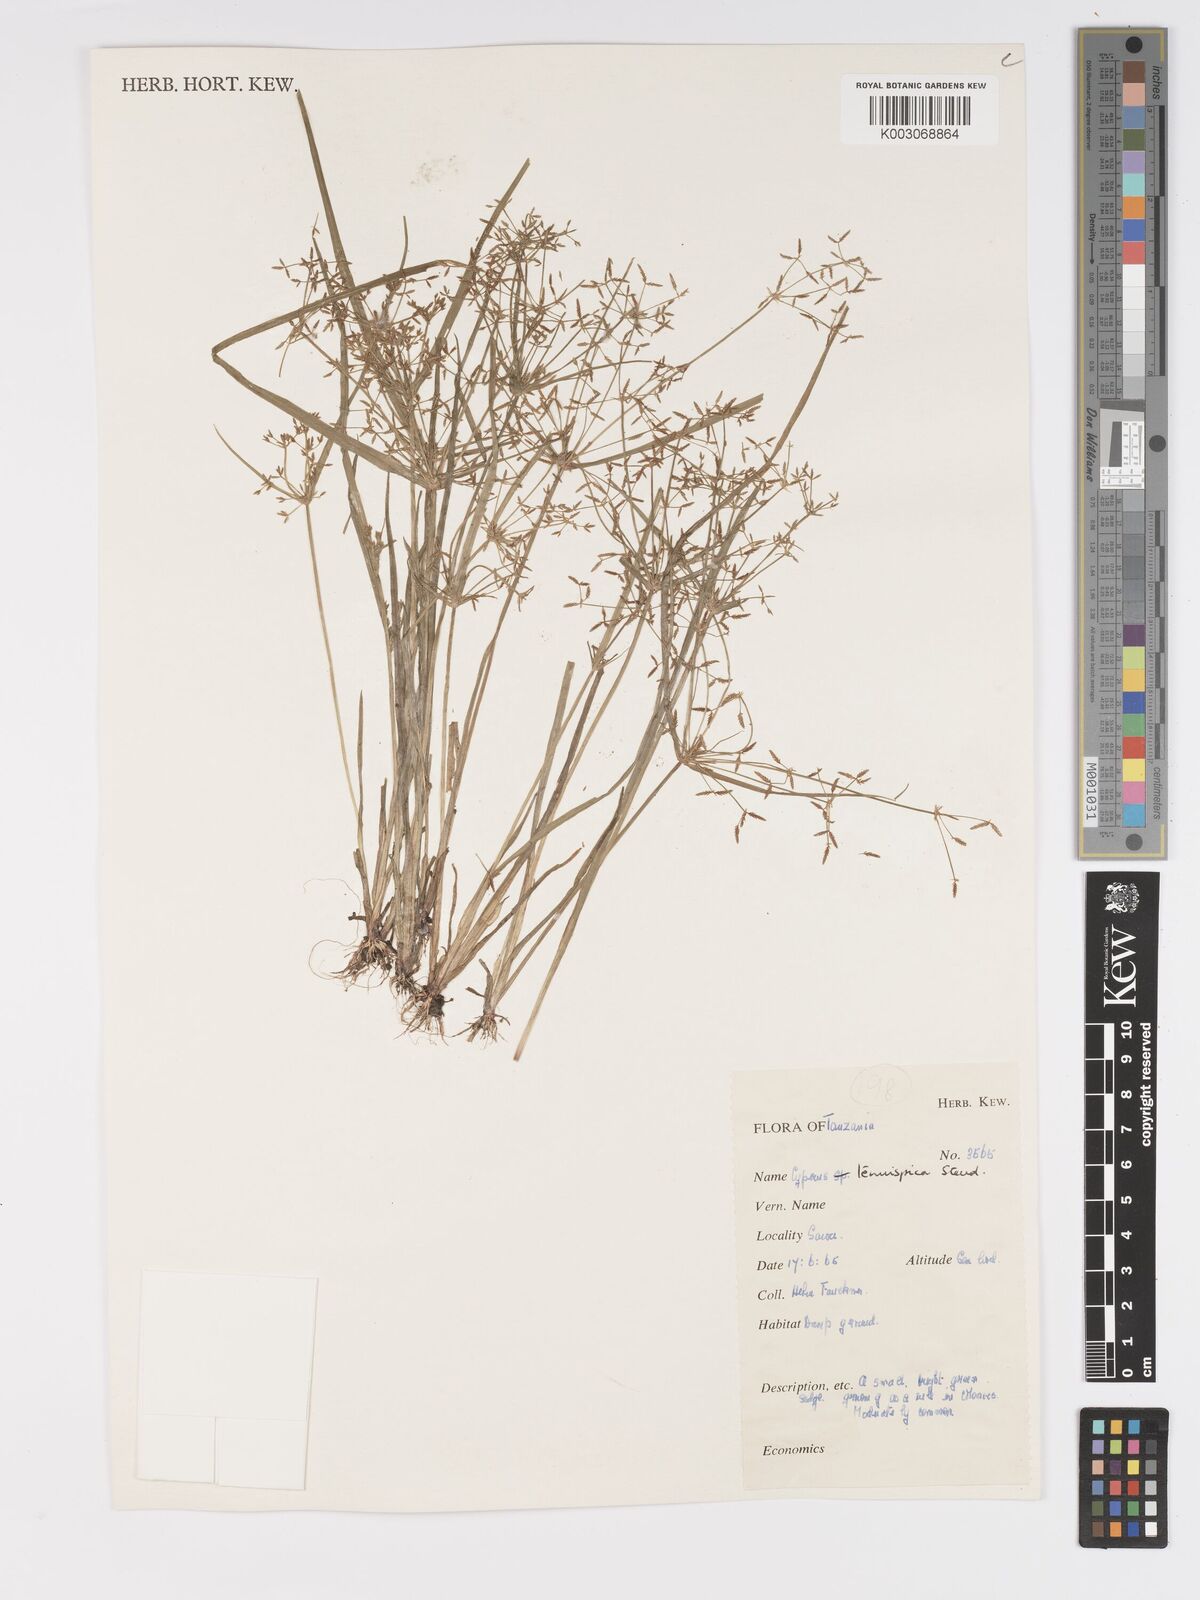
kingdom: Plantae
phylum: Tracheophyta
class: Liliopsida
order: Poales
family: Cyperaceae
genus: Cyperus
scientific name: Cyperus tenuispica
